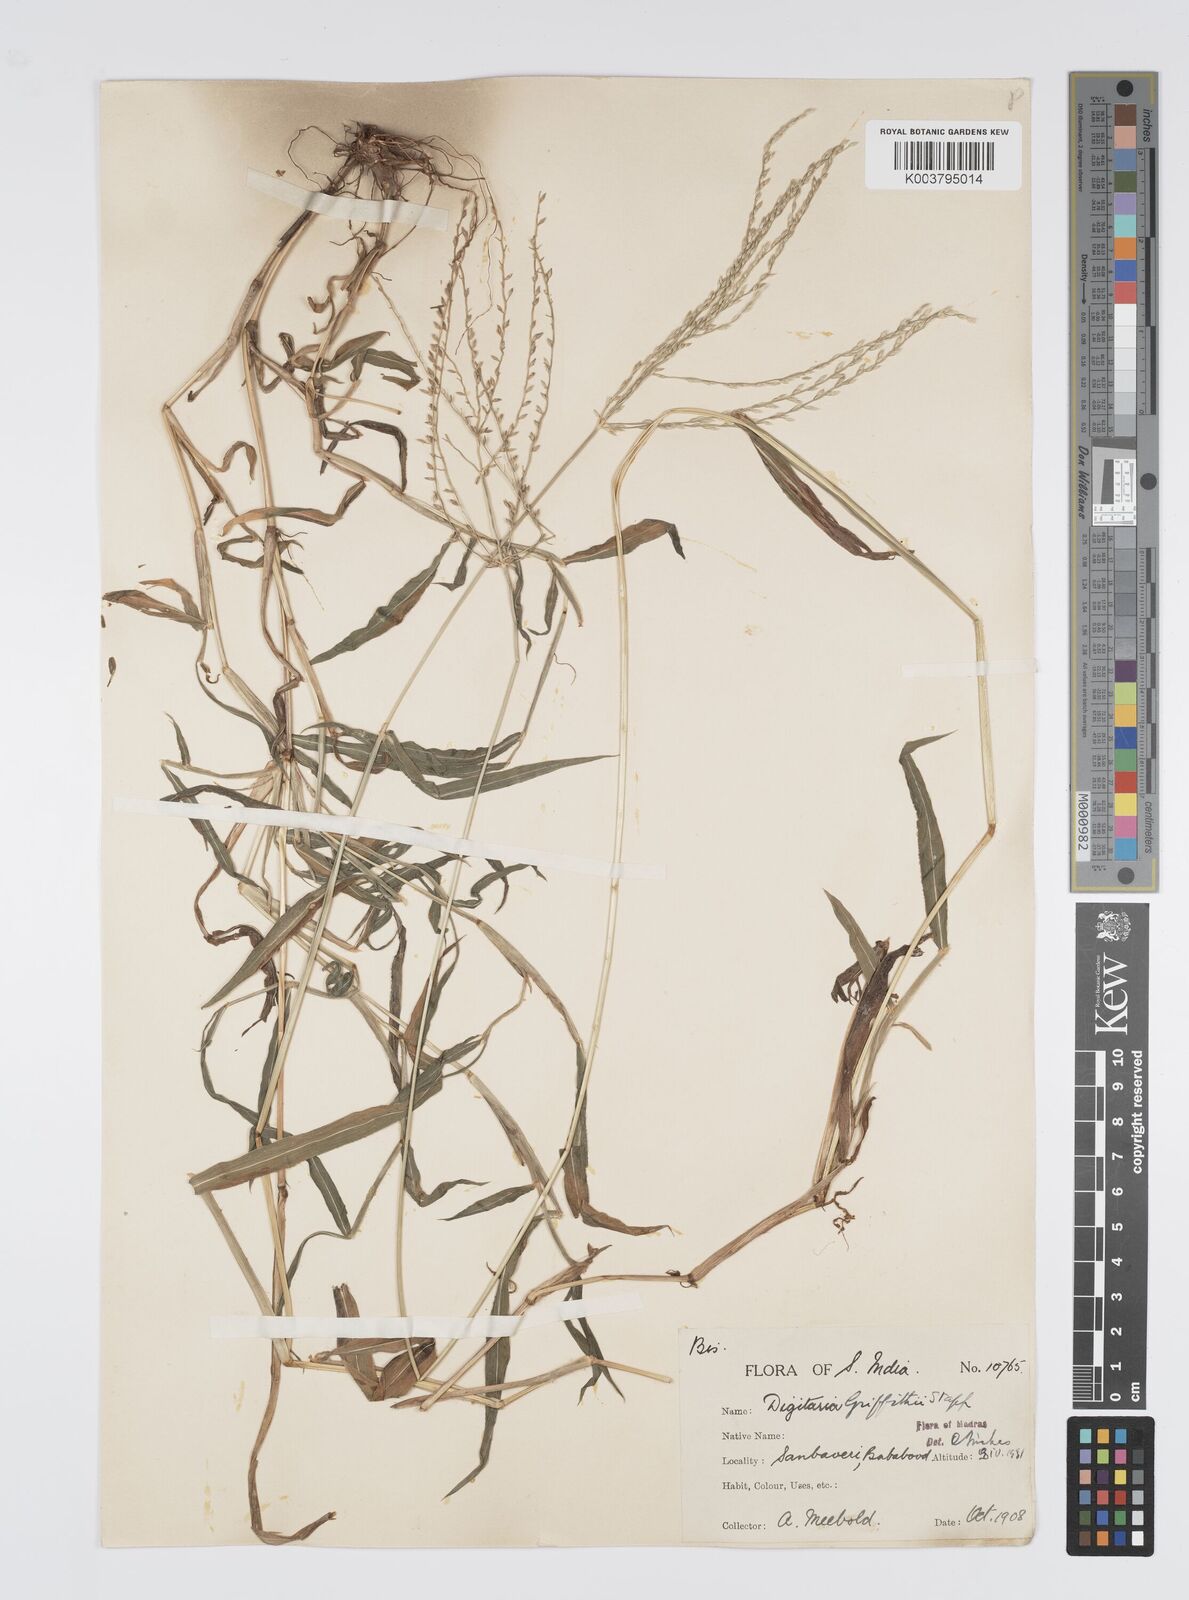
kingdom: Plantae
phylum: Tracheophyta
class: Liliopsida
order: Poales
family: Poaceae
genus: Digitaria
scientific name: Digitaria griffithii
